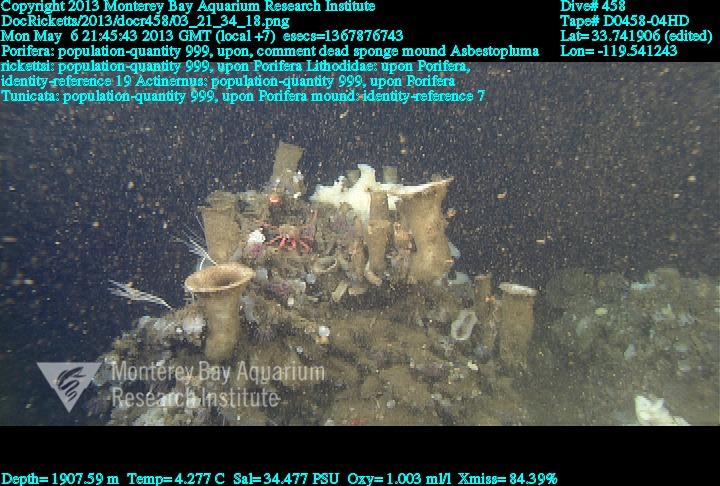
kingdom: Animalia
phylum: Porifera
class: Demospongiae
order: Poecilosclerida
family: Cladorhizidae
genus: Asbestopluma
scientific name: Asbestopluma rickettsi
